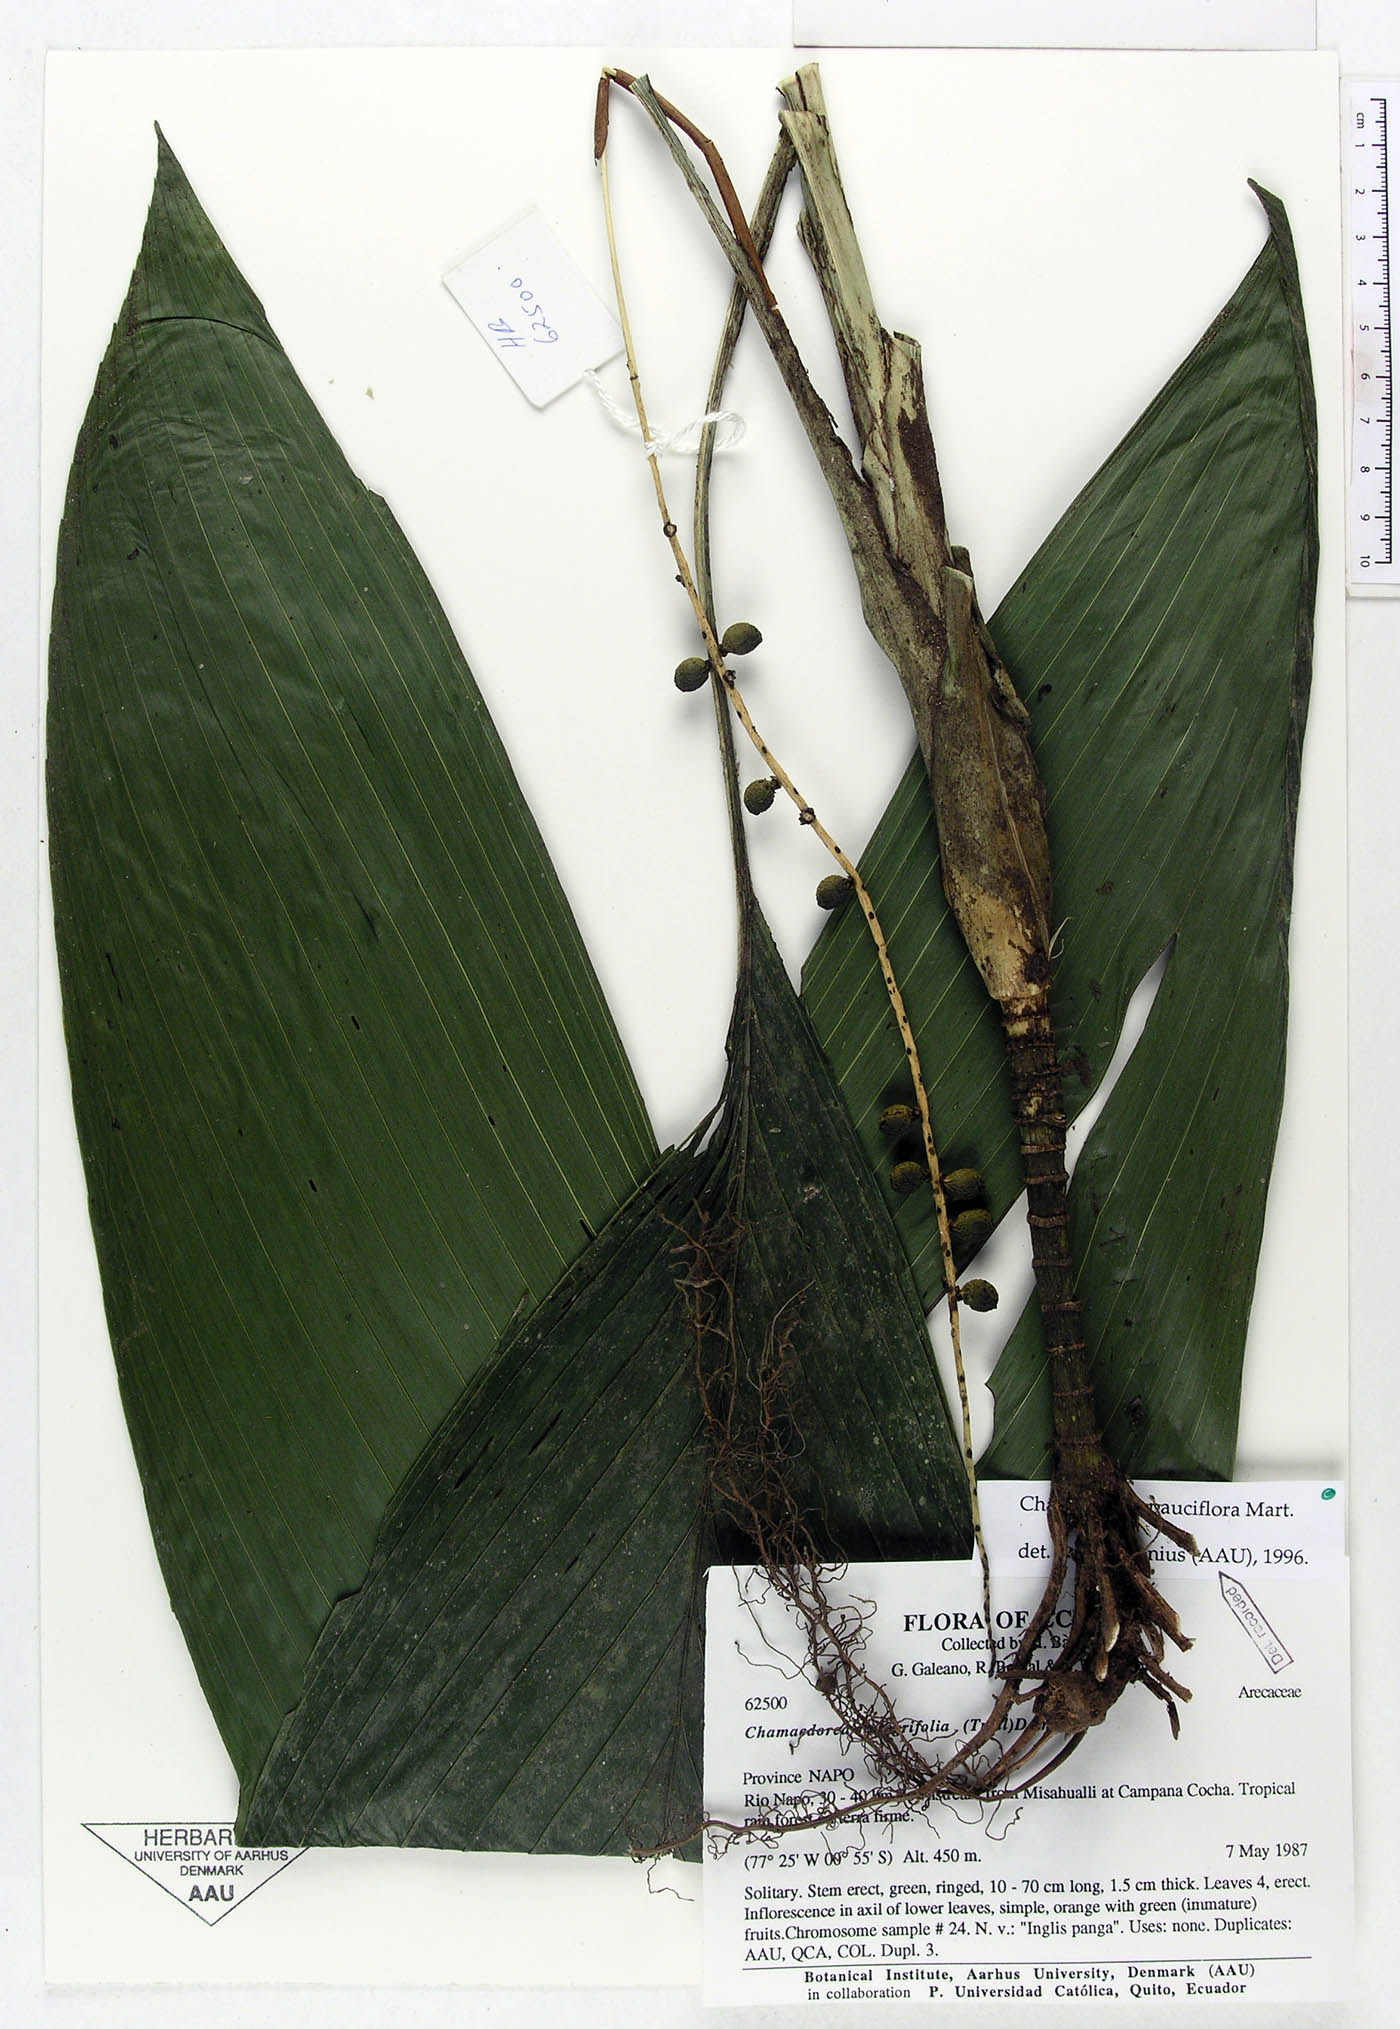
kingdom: Plantae
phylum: Tracheophyta
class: Liliopsida
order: Arecales
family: Arecaceae
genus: Chamaedorea
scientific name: Chamaedorea pauciflora
